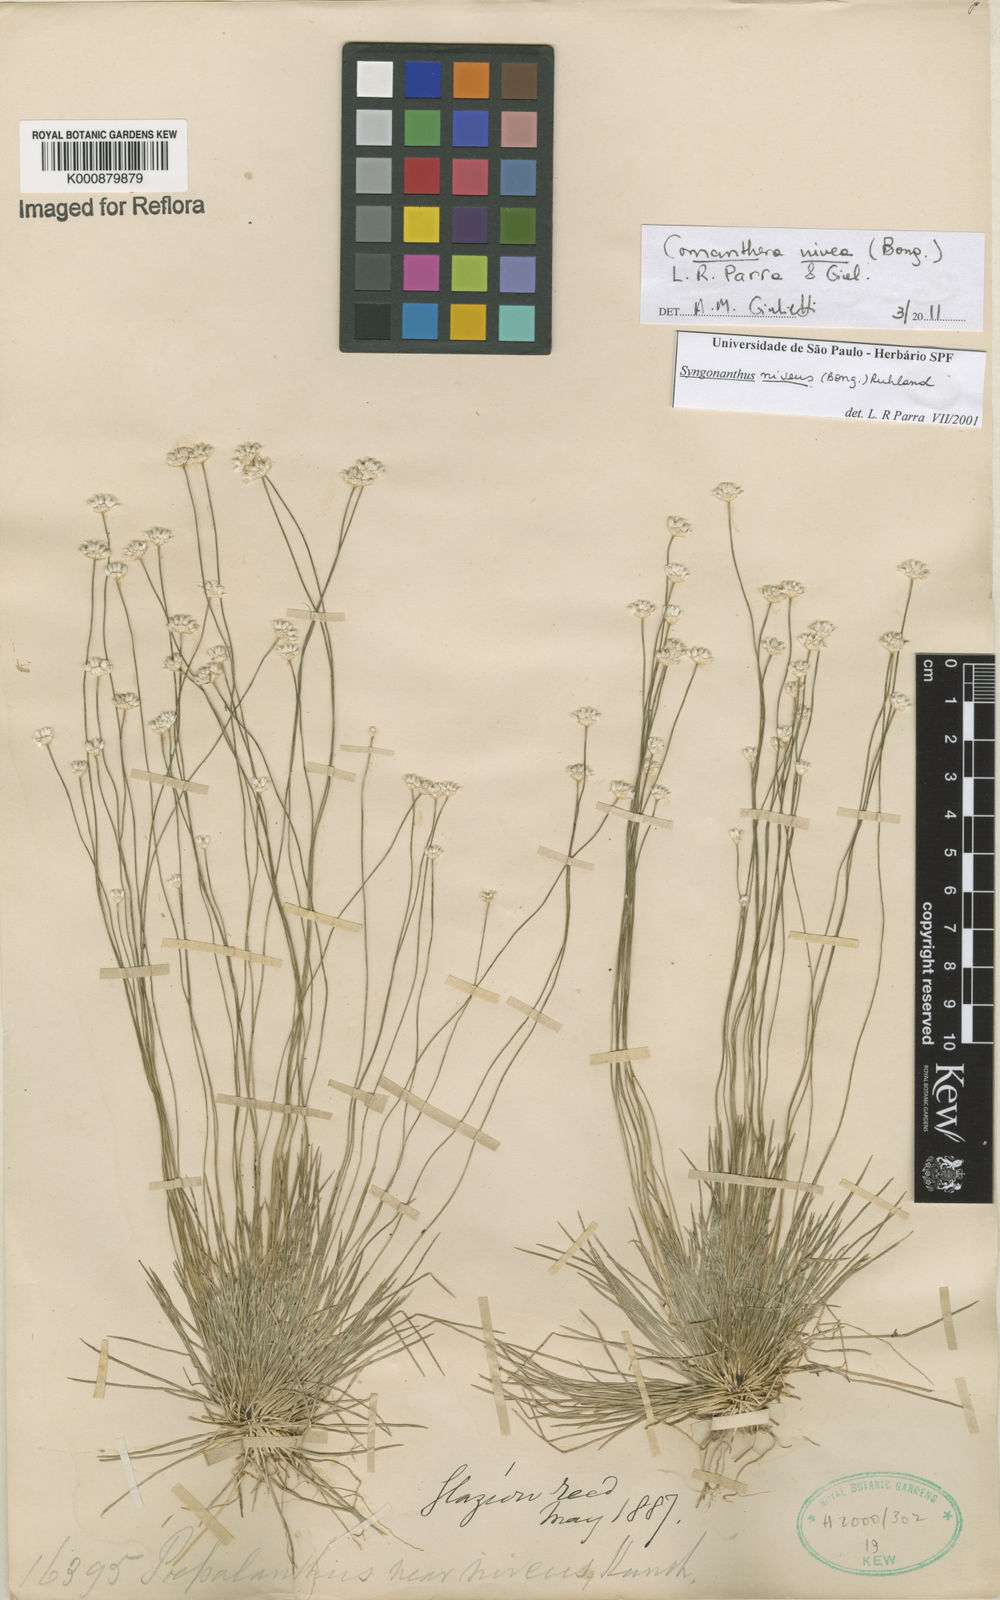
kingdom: Plantae
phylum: Tracheophyta
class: Liliopsida
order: Poales
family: Eriocaulaceae
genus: Comanthera
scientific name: Comanthera nivea
